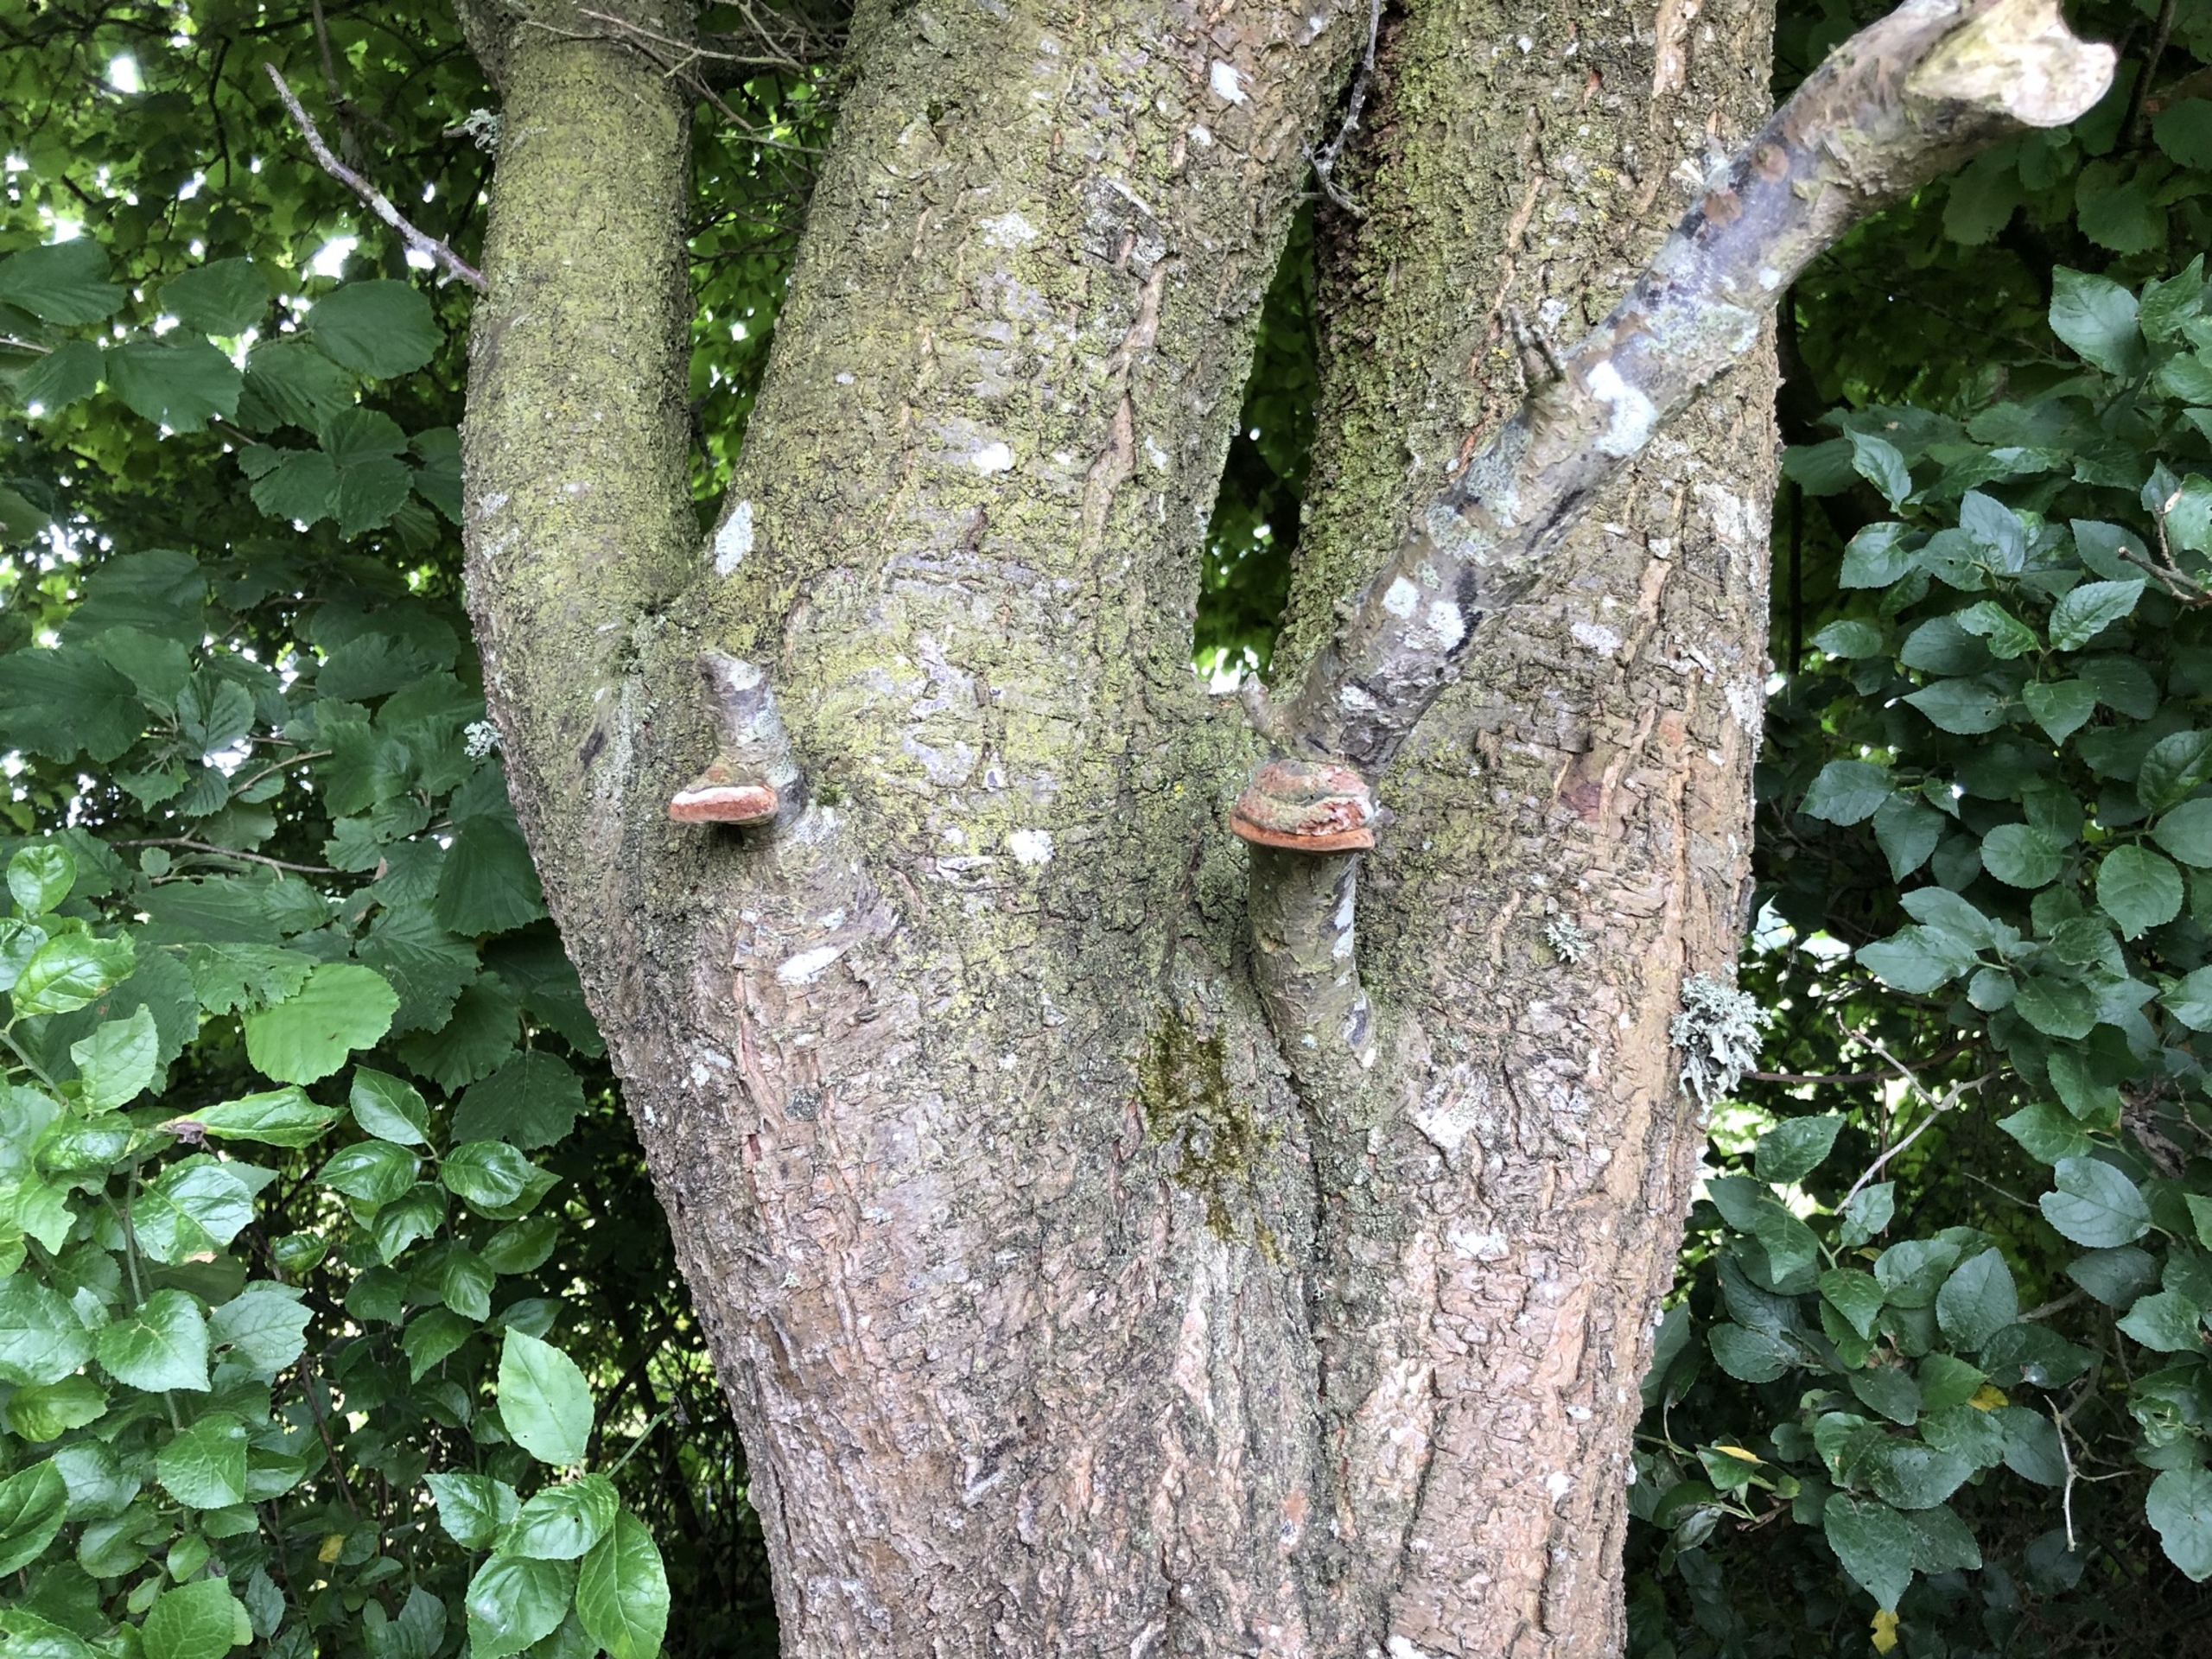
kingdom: Fungi
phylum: Basidiomycota
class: Agaricomycetes
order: Hymenochaetales
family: Hymenochaetaceae
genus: Phellinus
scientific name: Phellinus pomaceus
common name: Blomme-ildporesvamp
